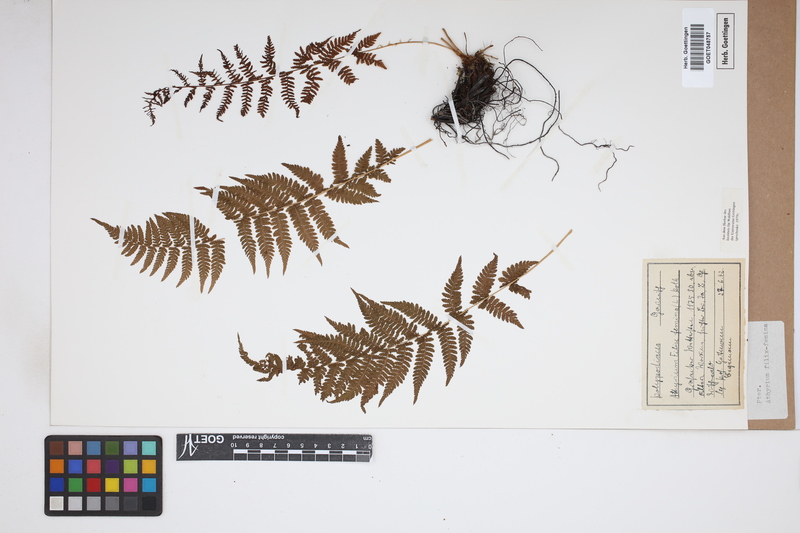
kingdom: Plantae
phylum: Tracheophyta
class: Polypodiopsida
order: Polypodiales
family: Athyriaceae
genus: Athyrium
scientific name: Athyrium filix-femina
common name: Lady fern
